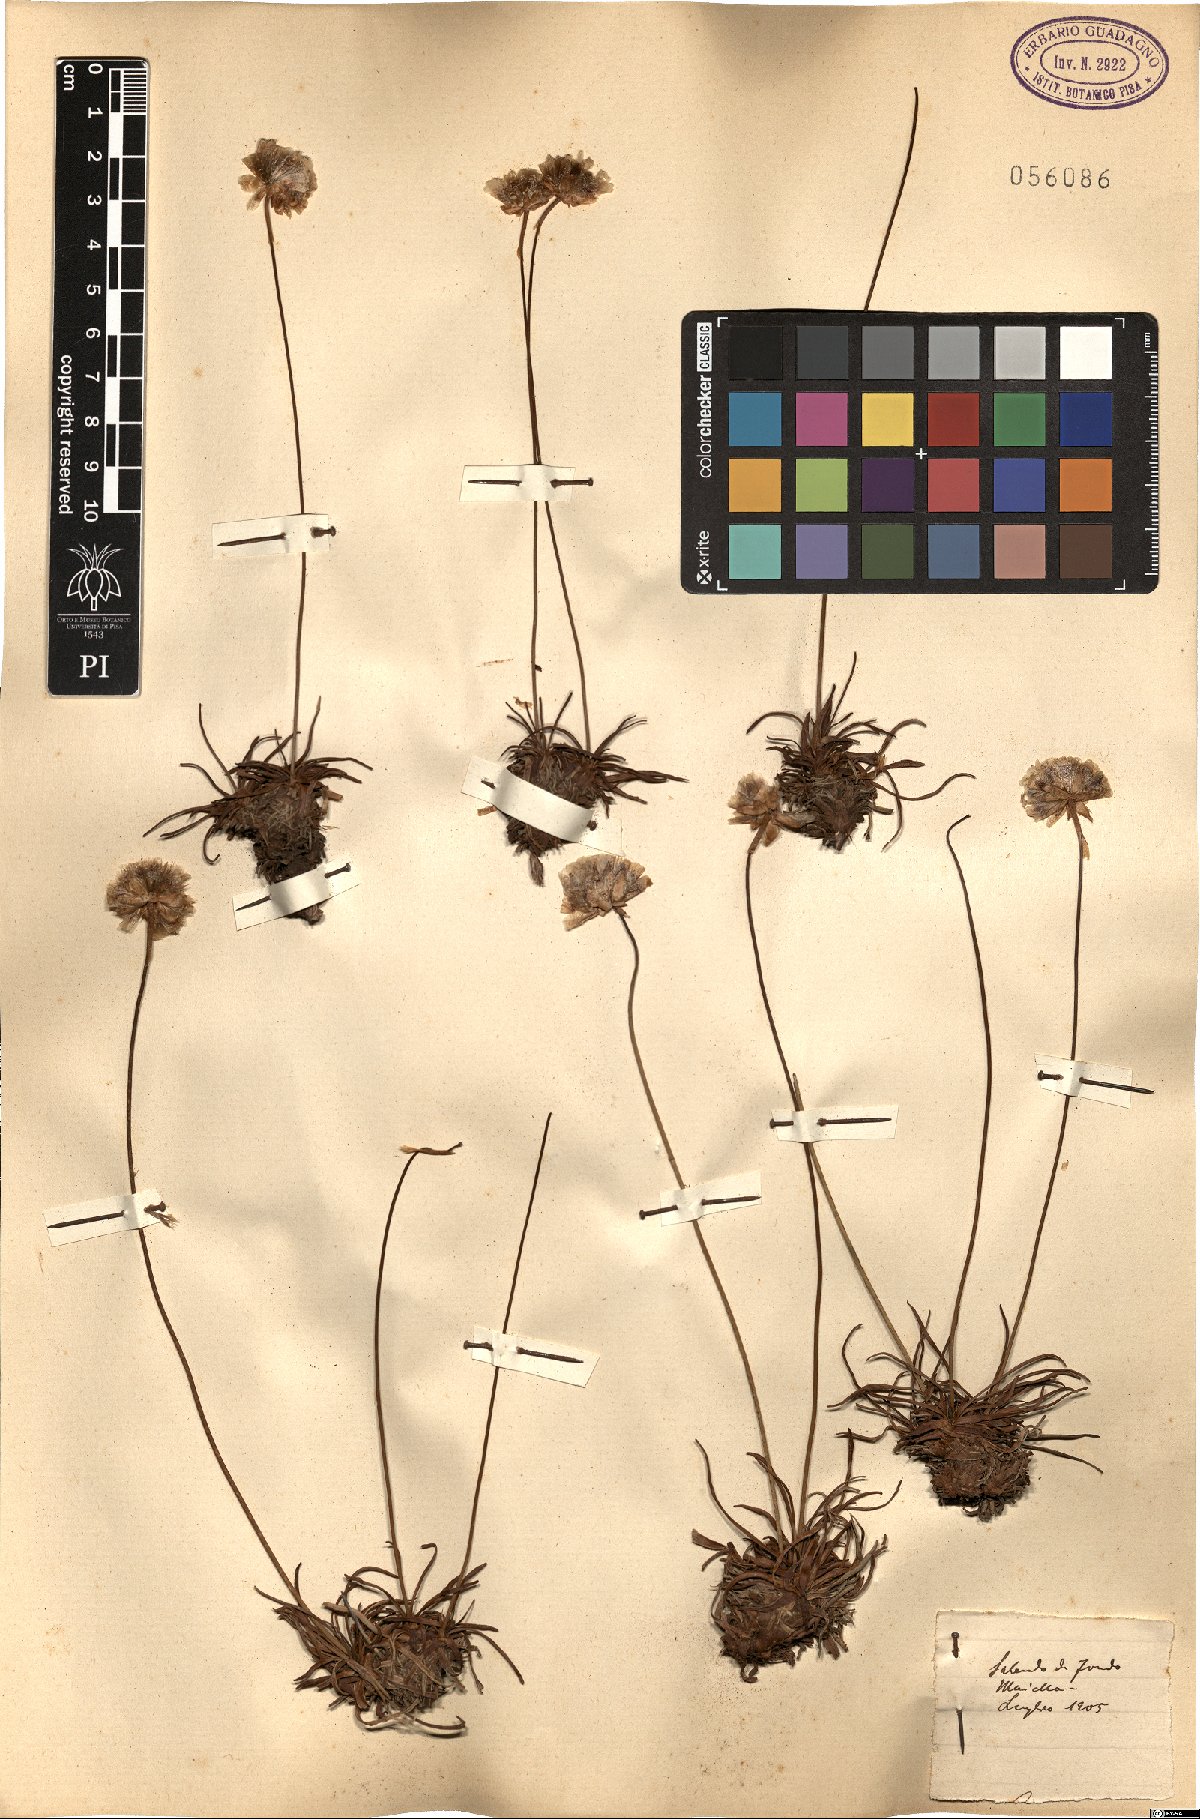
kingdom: Plantae
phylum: Tracheophyta
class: Magnoliopsida
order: Caryophyllales
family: Plumbaginaceae
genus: Armeria
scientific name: Armeria
